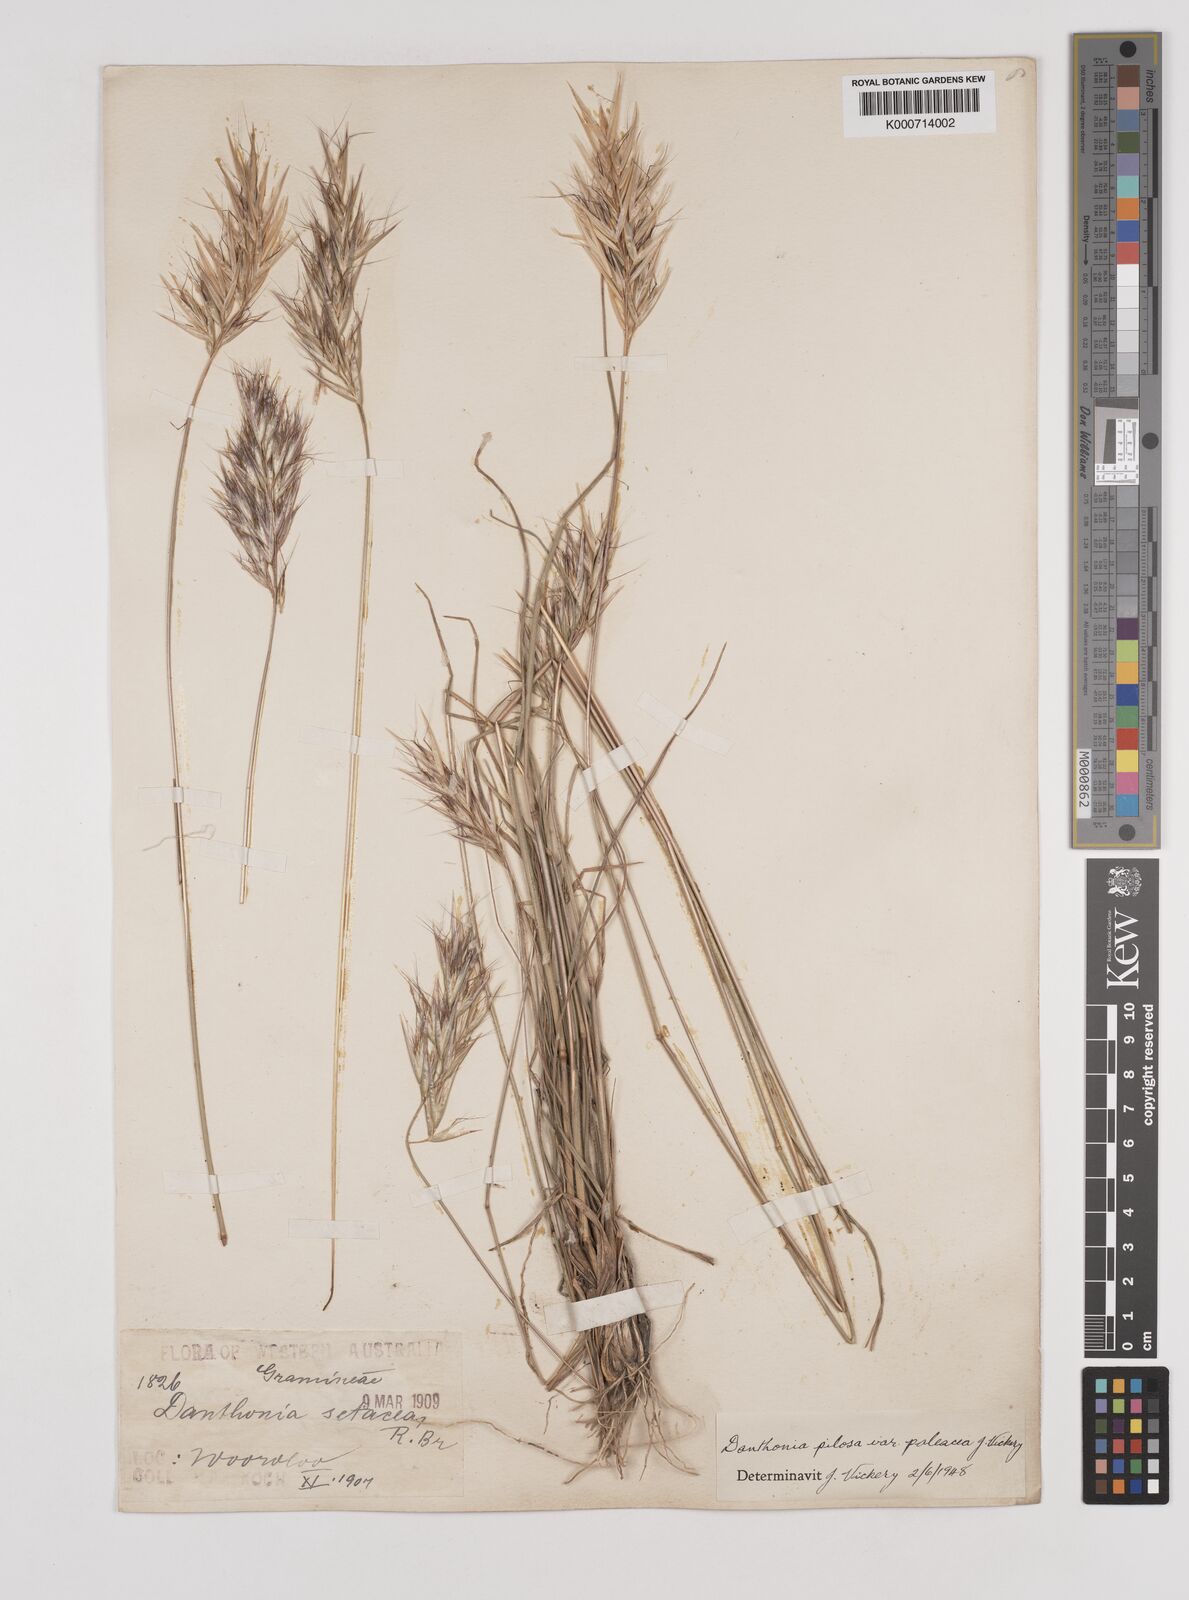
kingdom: Plantae
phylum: Tracheophyta
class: Liliopsida
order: Poales
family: Poaceae
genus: Rytidosperma
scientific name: Rytidosperma pilosum
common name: Hairy wallaby grass
